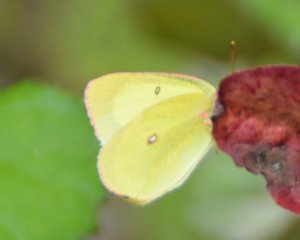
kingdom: Animalia
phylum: Arthropoda
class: Insecta
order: Lepidoptera
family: Pieridae
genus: Colias
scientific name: Colias interior
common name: Pink-edged Sulphur
